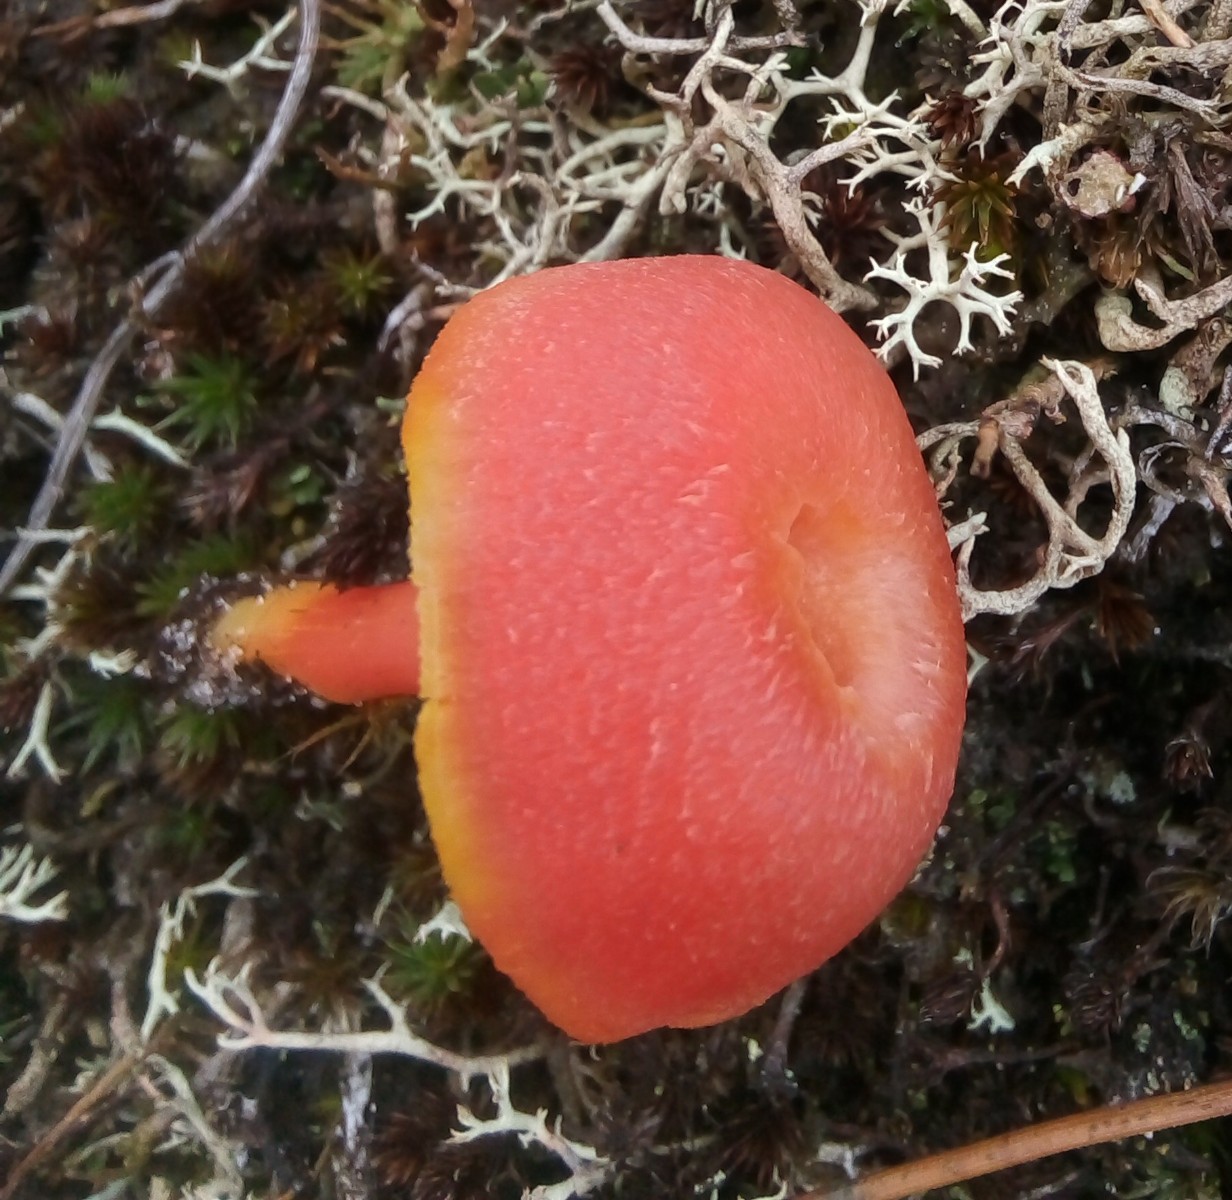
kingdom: Fungi
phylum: Basidiomycota
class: Agaricomycetes
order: Agaricales
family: Hygrophoraceae
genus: Hygrocybe
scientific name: Hygrocybe miniata
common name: mønje-vokshat
